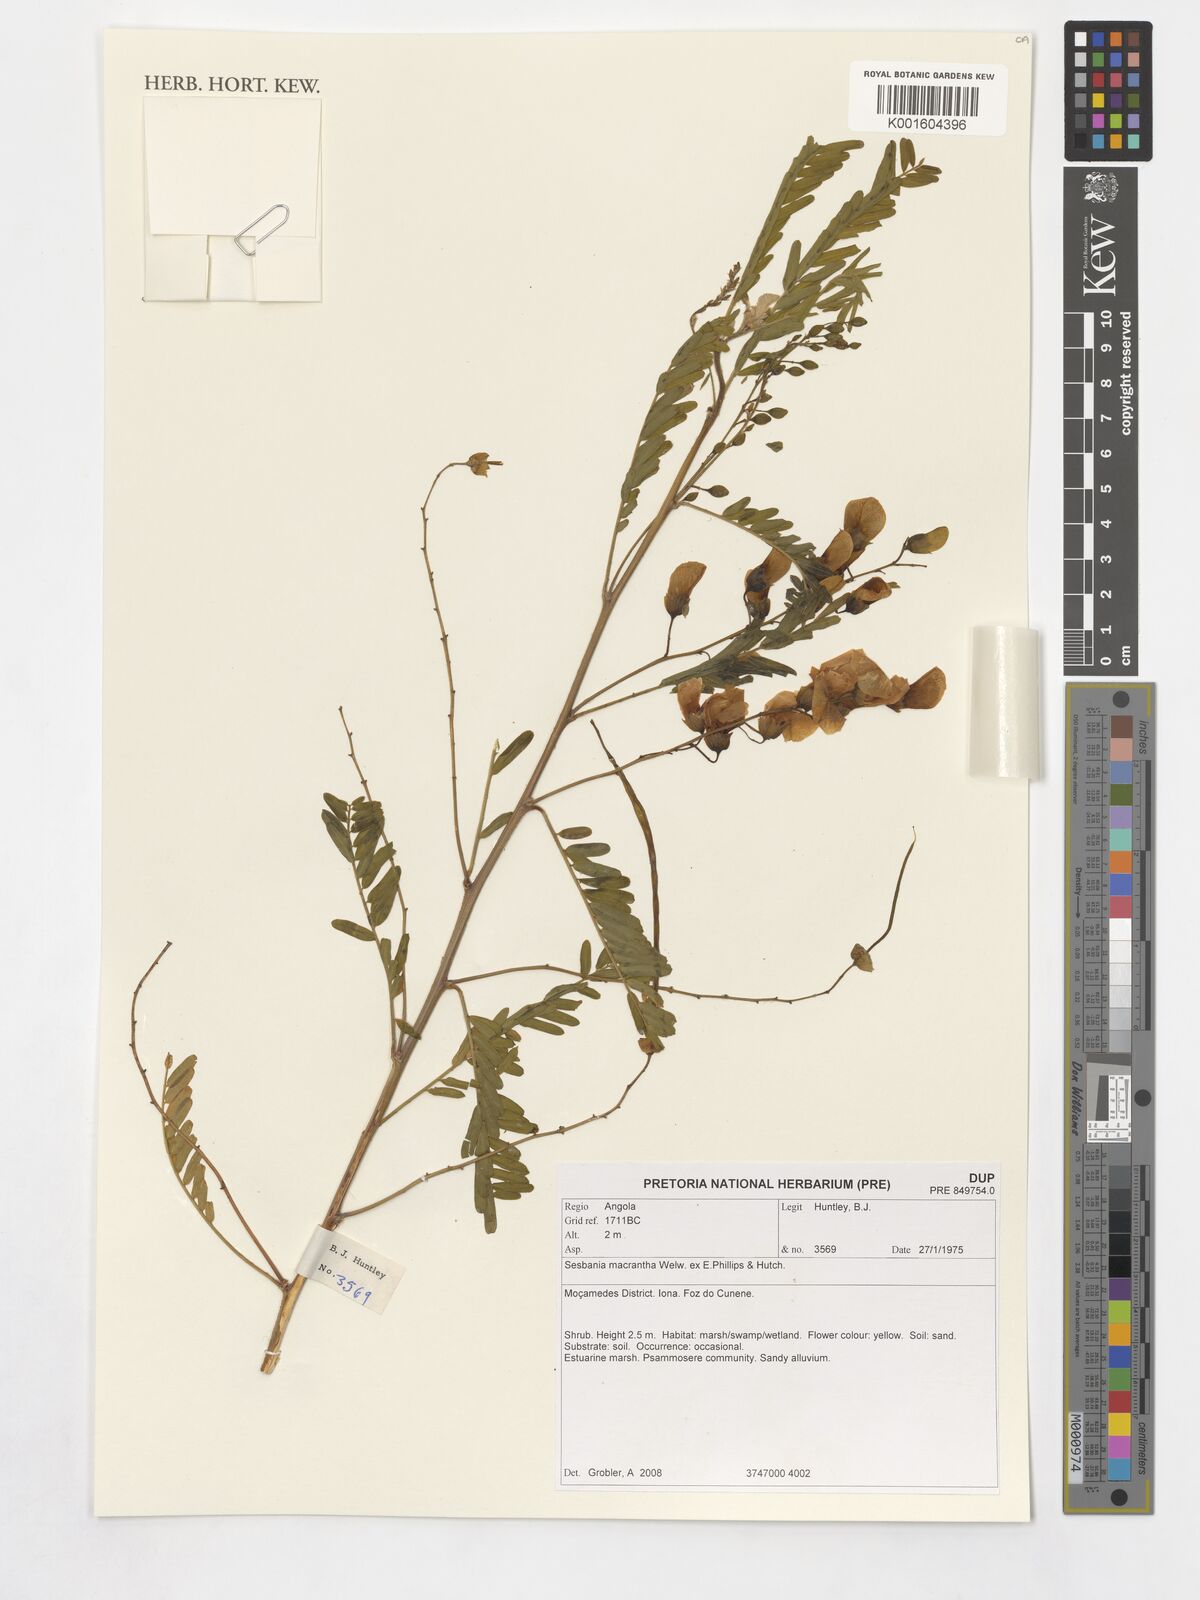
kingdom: Plantae
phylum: Tracheophyta
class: Magnoliopsida
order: Fabales
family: Fabaceae
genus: Sesbania
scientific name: Sesbania macrantha
